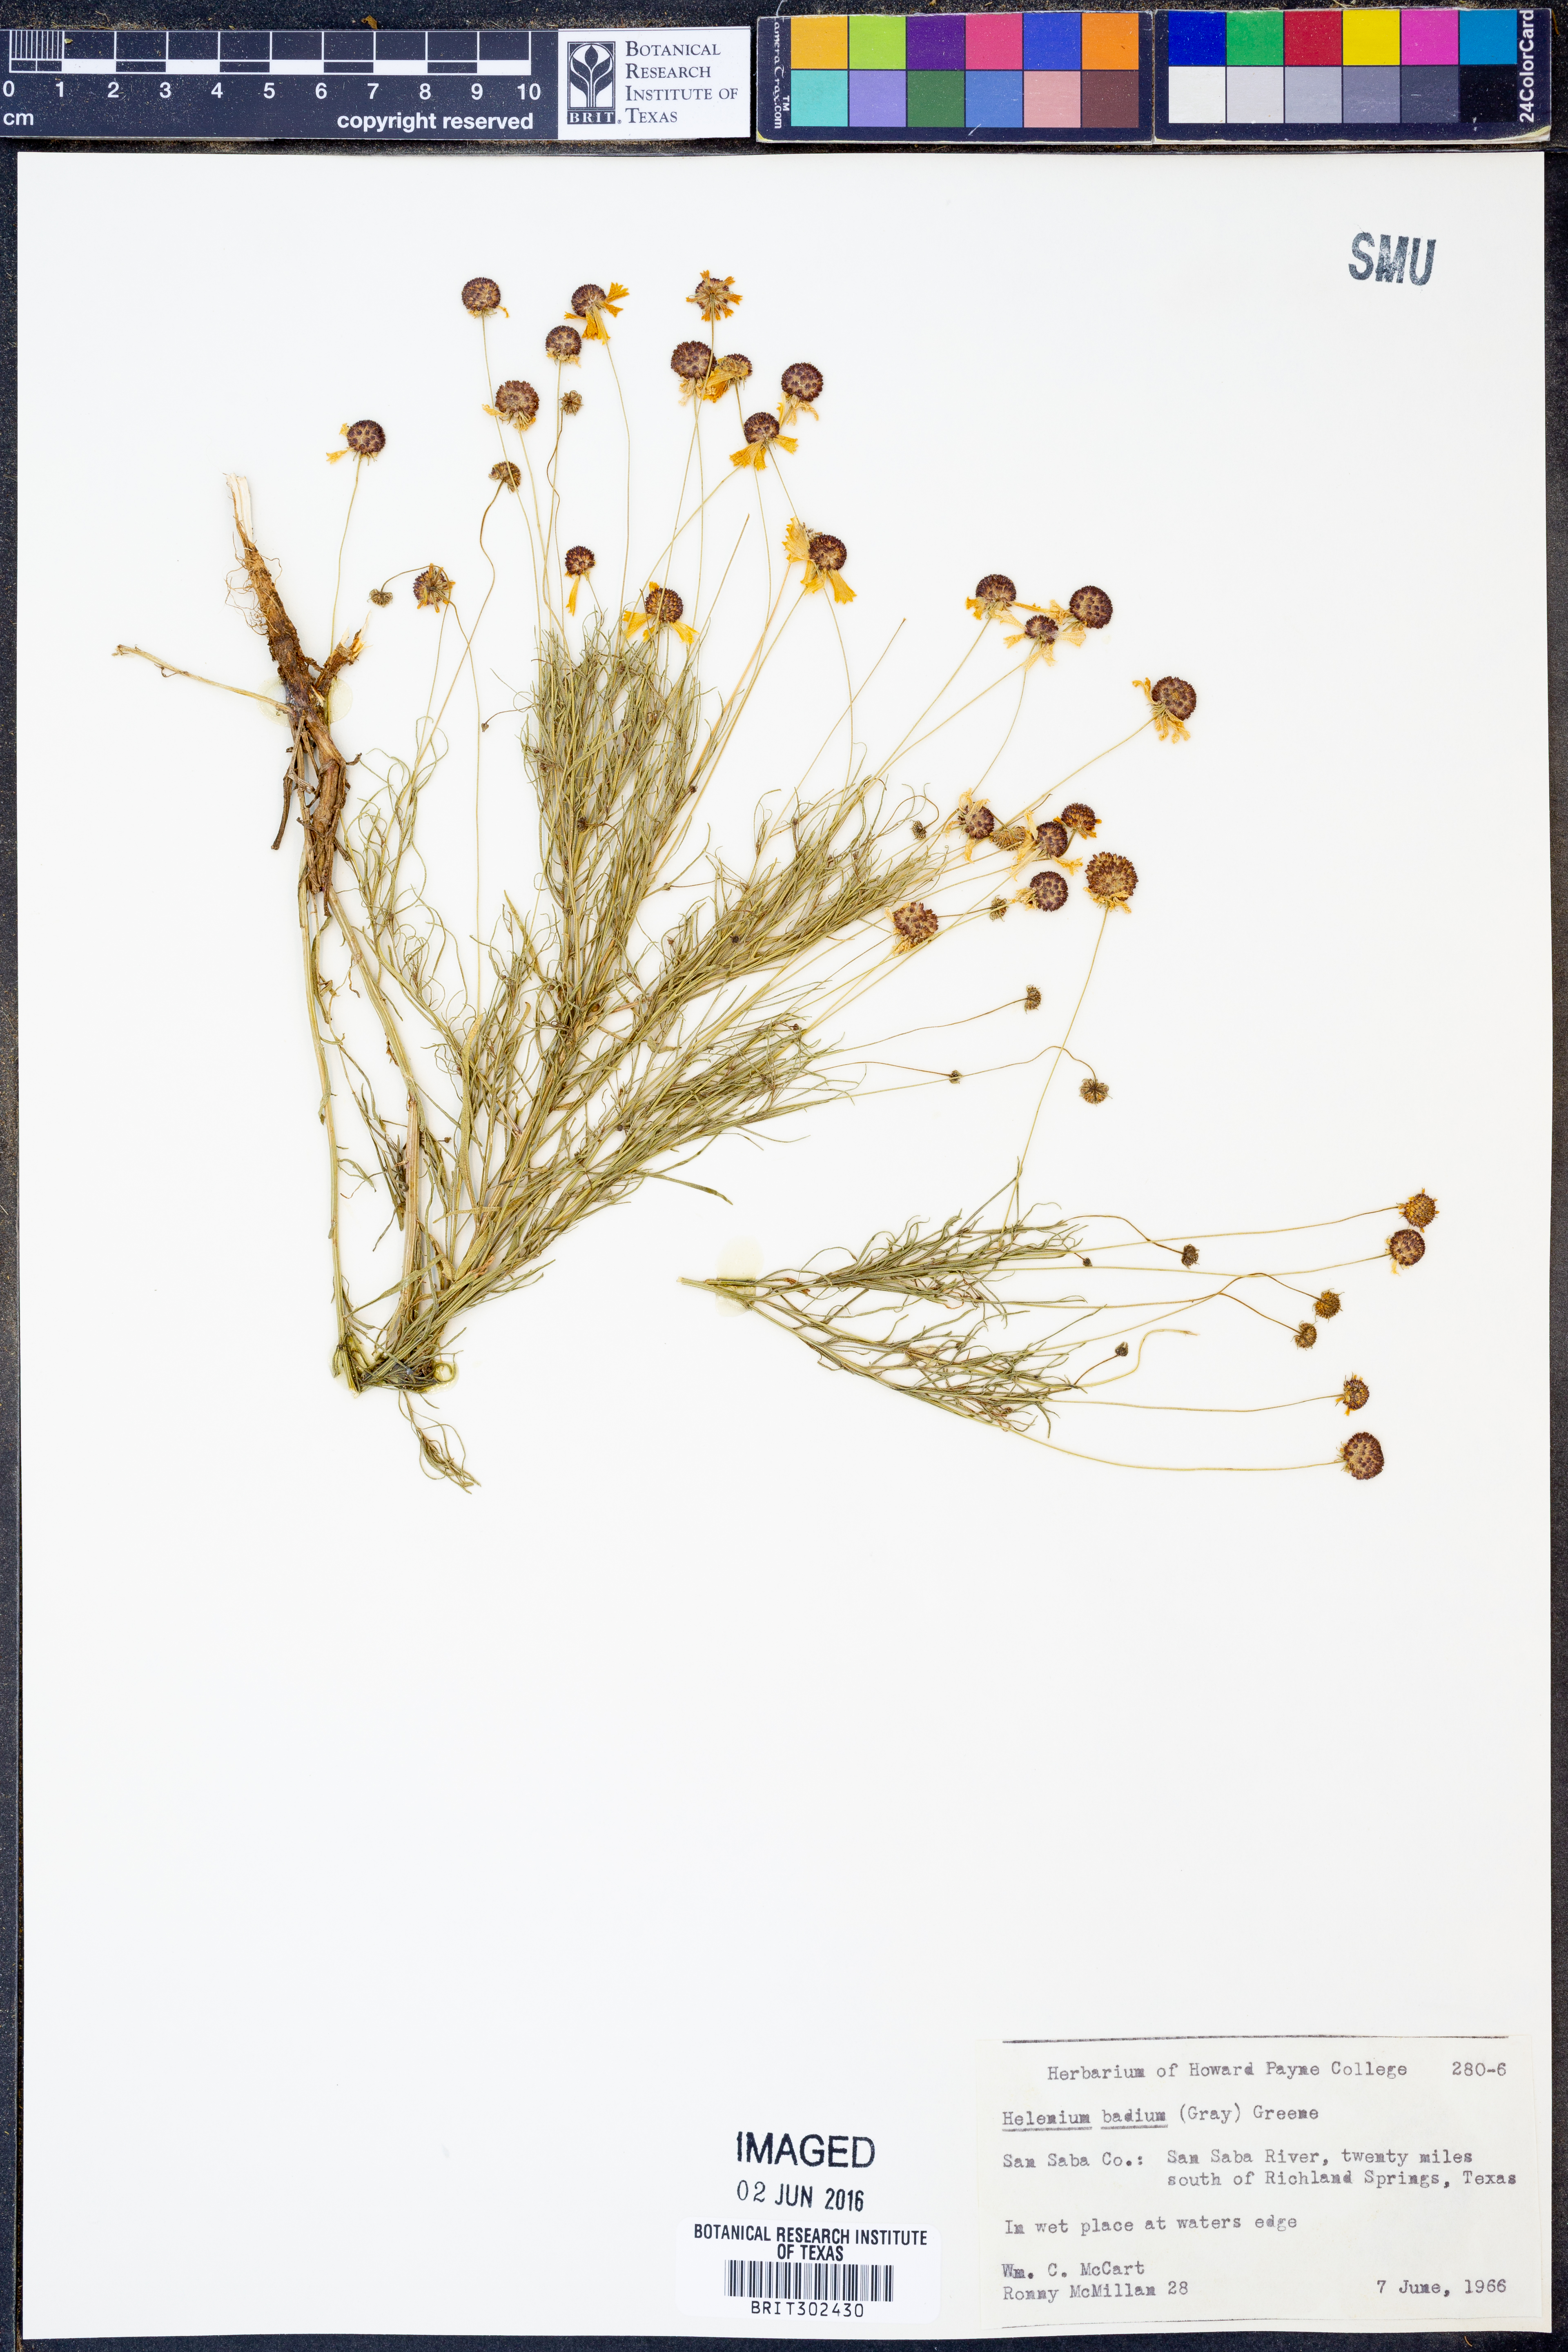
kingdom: Plantae
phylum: Tracheophyta
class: Magnoliopsida
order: Asterales
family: Asteraceae
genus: Helenium
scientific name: Helenium amarum
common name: Bitter sneezeweed
